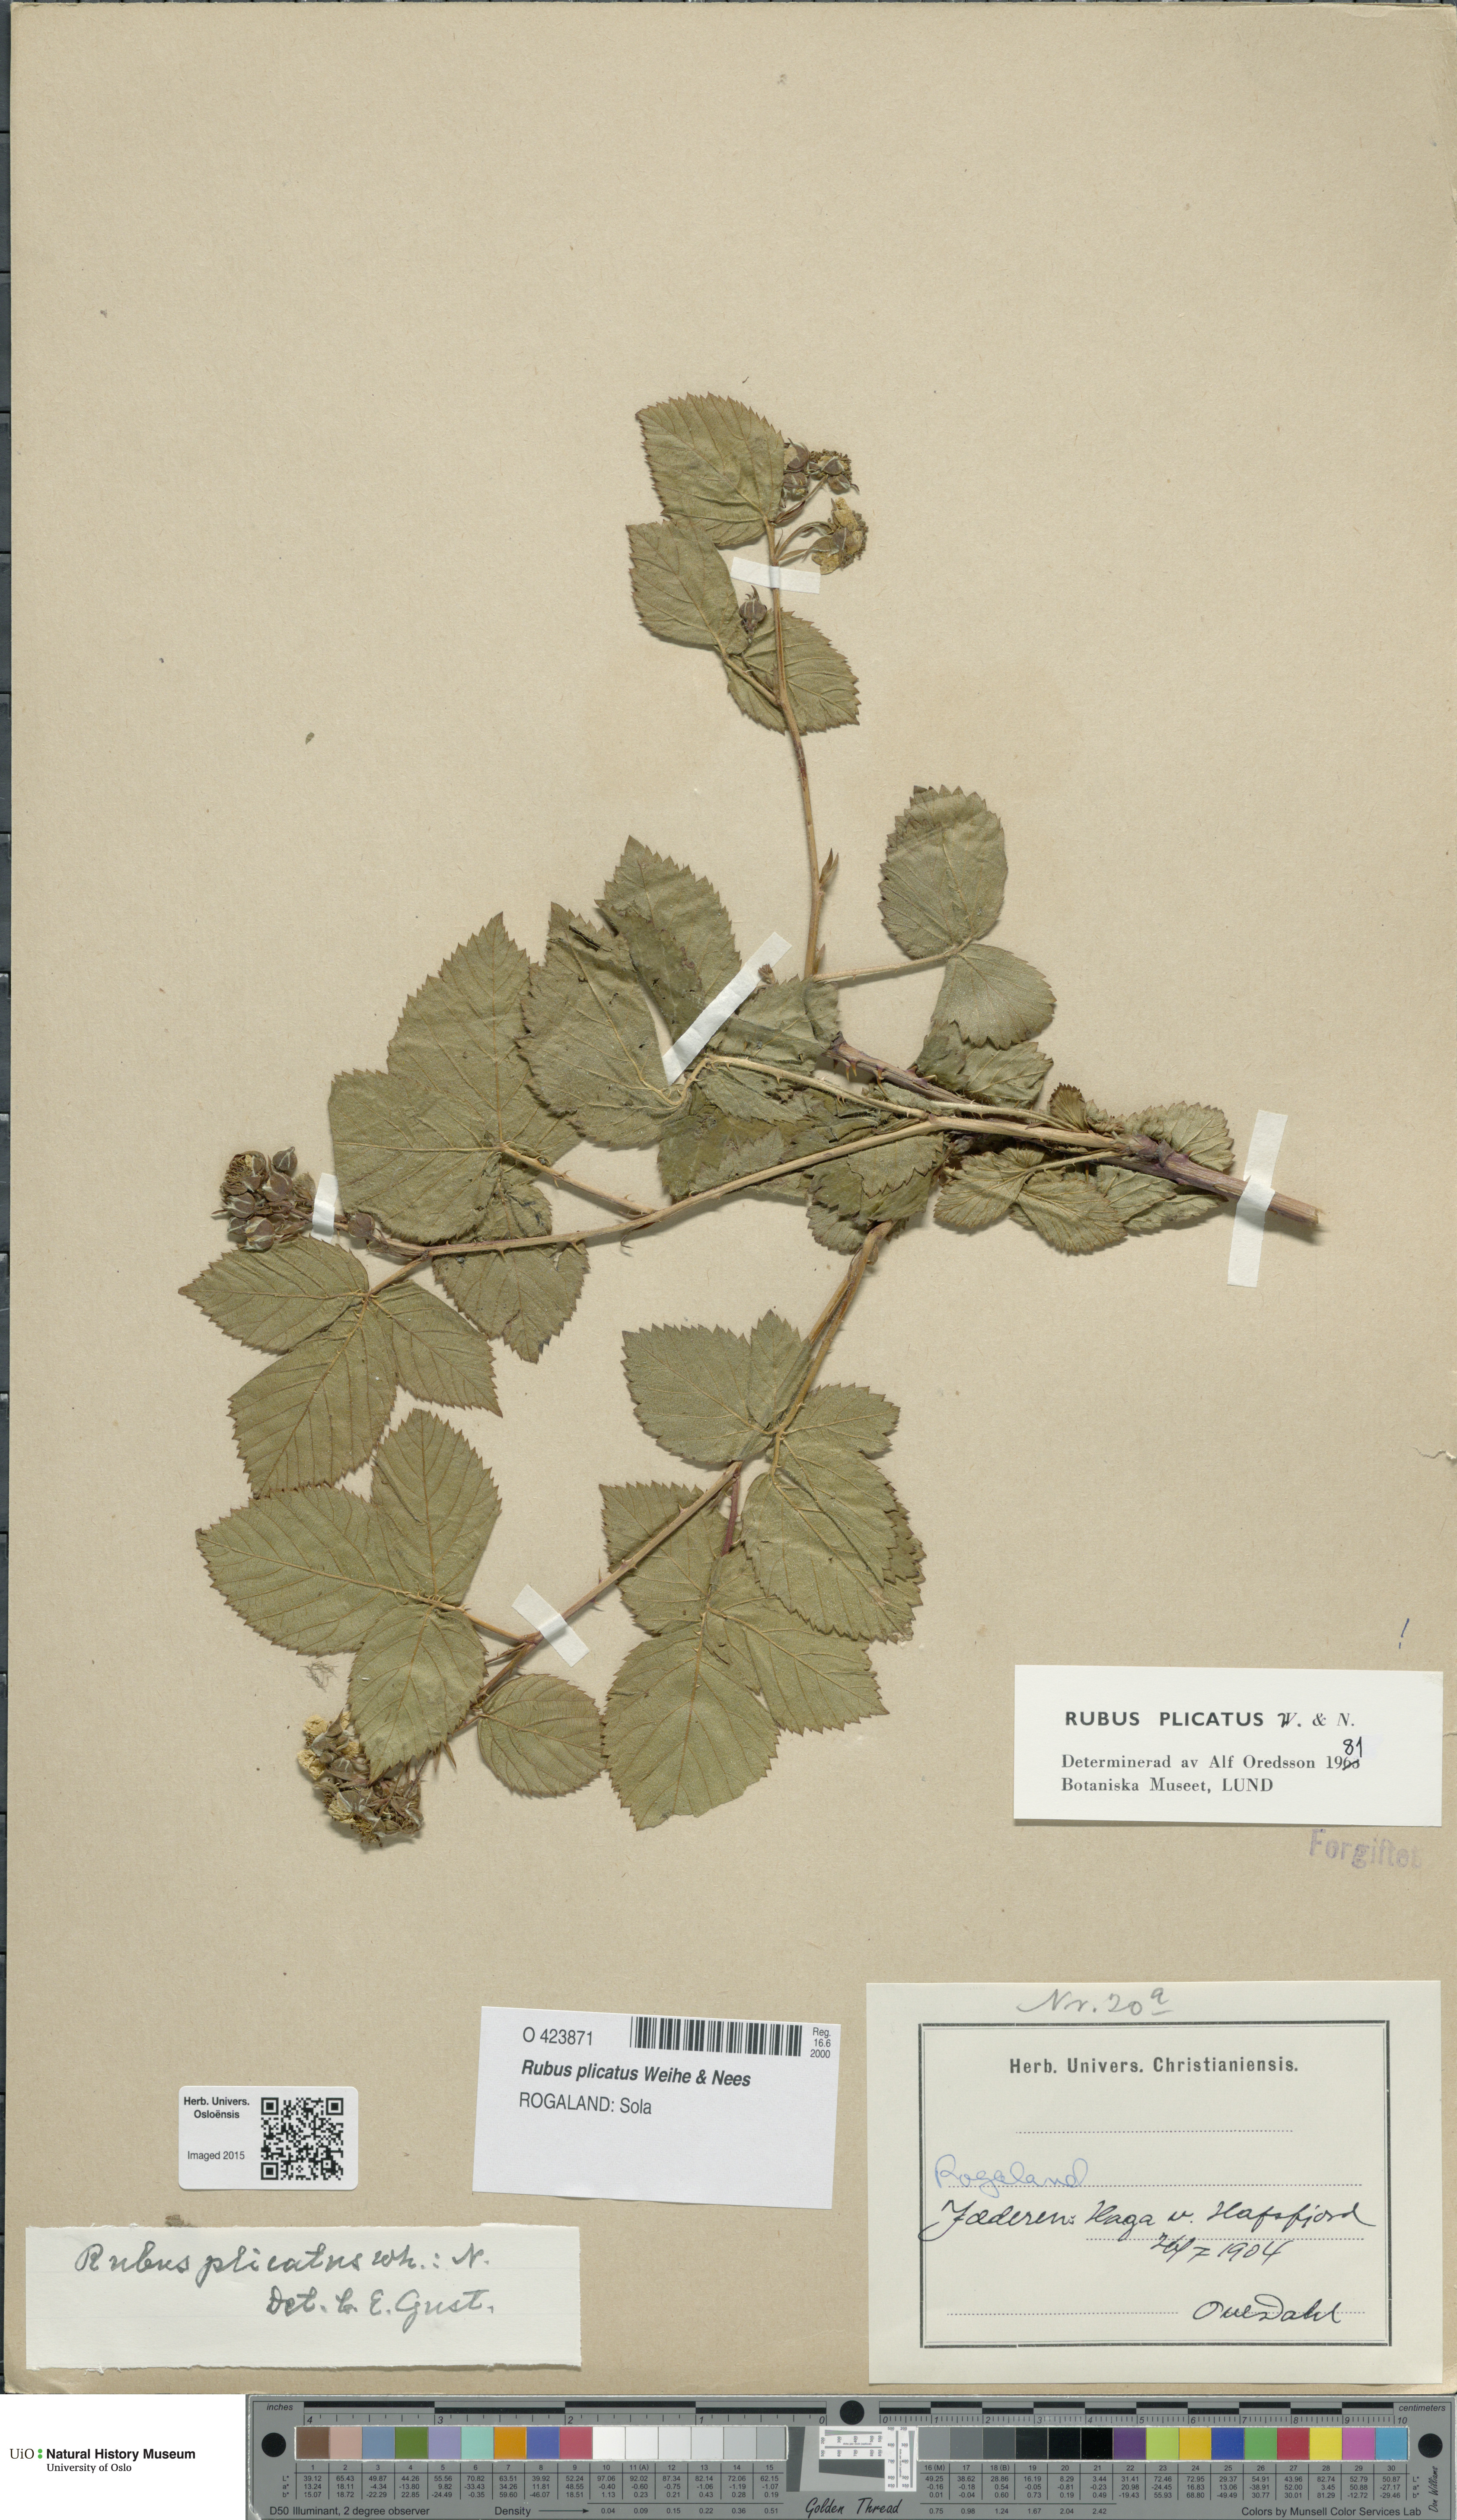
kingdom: Plantae
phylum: Tracheophyta
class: Magnoliopsida
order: Rosales
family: Rosaceae
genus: Rubus
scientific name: Rubus fruticosus
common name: Blackberry, bramble
